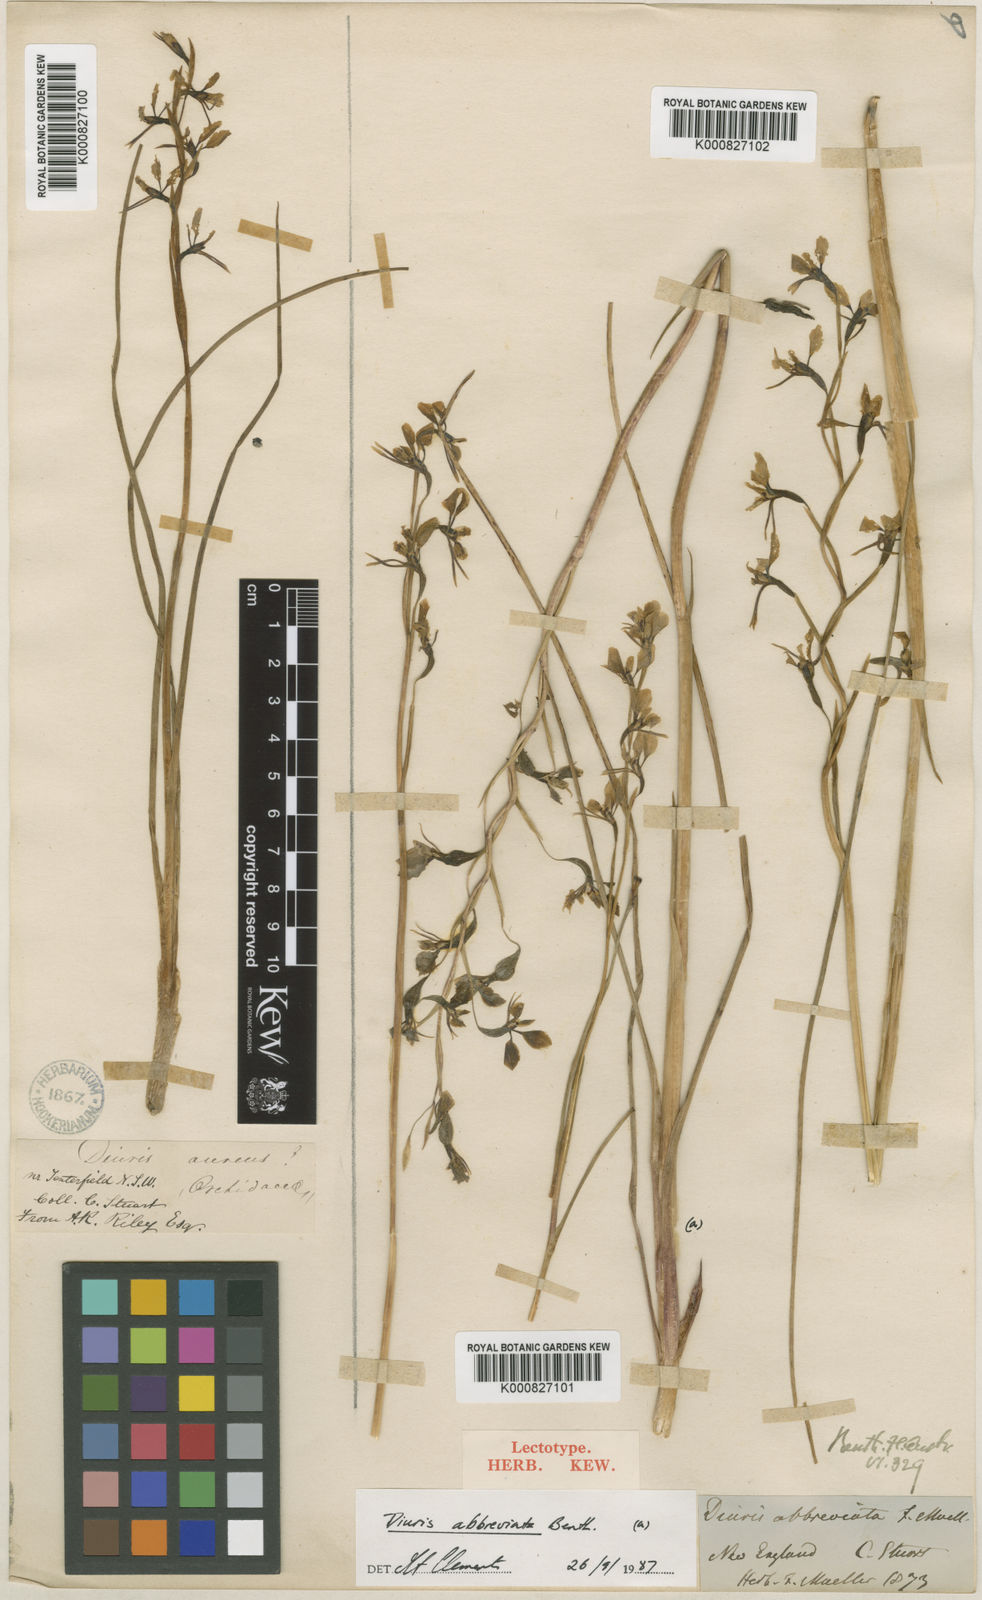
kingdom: Plantae
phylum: Tracheophyta
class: Liliopsida
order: Asparagales
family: Orchidaceae
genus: Diuris
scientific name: Diuris abbreviata
